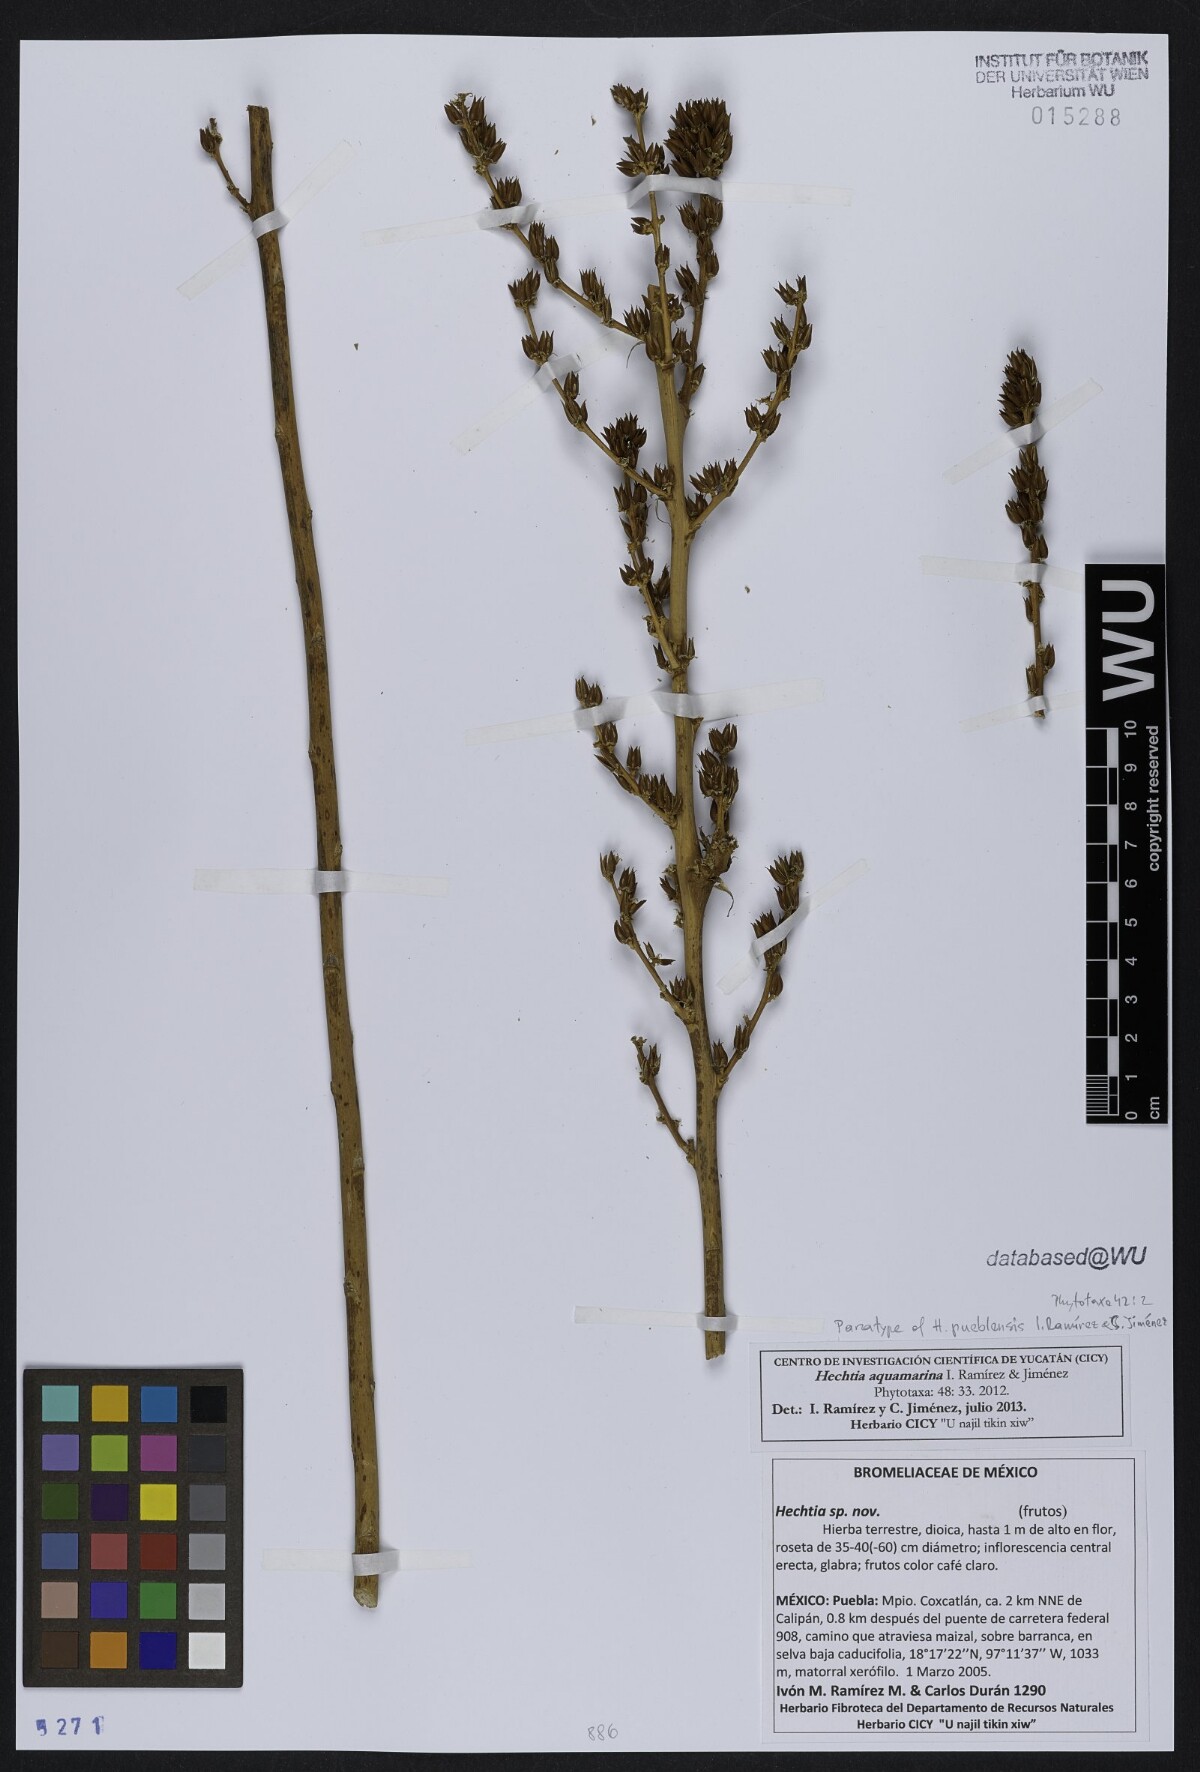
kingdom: Plantae
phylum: Tracheophyta
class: Liliopsida
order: Poales
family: Bromeliaceae
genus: Hechtia
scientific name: Hechtia aquamarina
